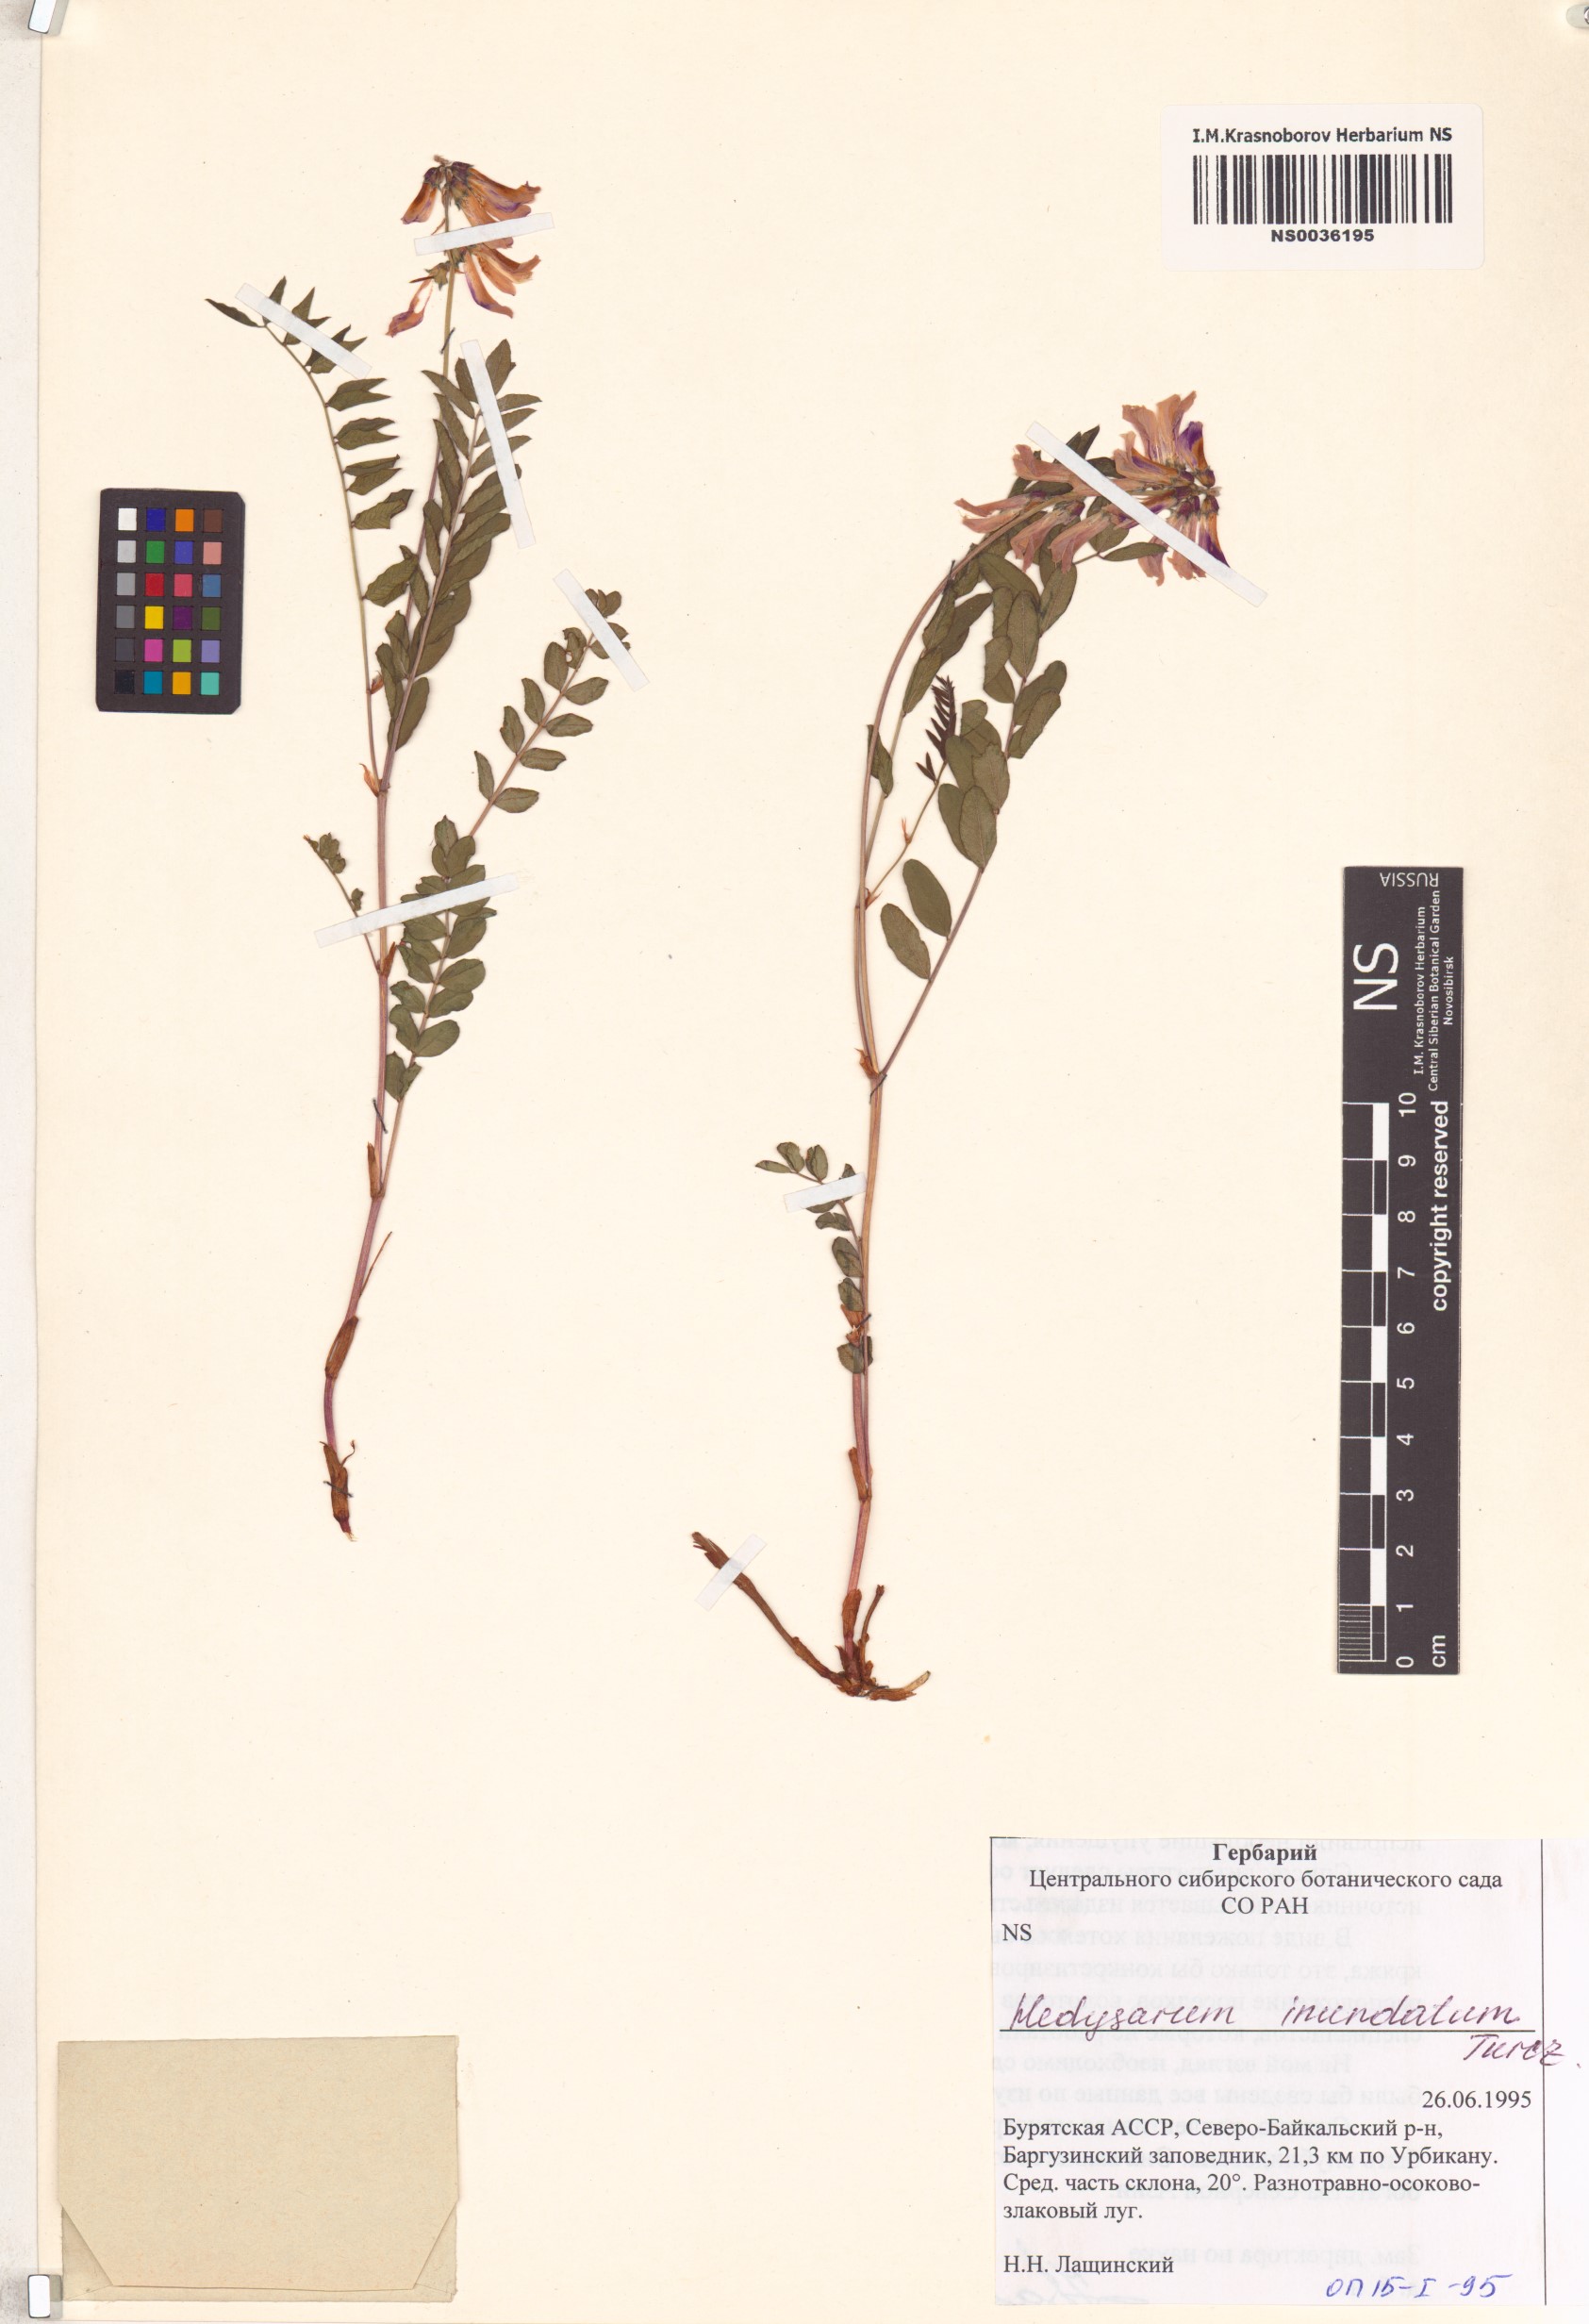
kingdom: Plantae
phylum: Tracheophyta
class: Magnoliopsida
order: Fabales
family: Fabaceae
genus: Hedysarum
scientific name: Hedysarum inundatum
